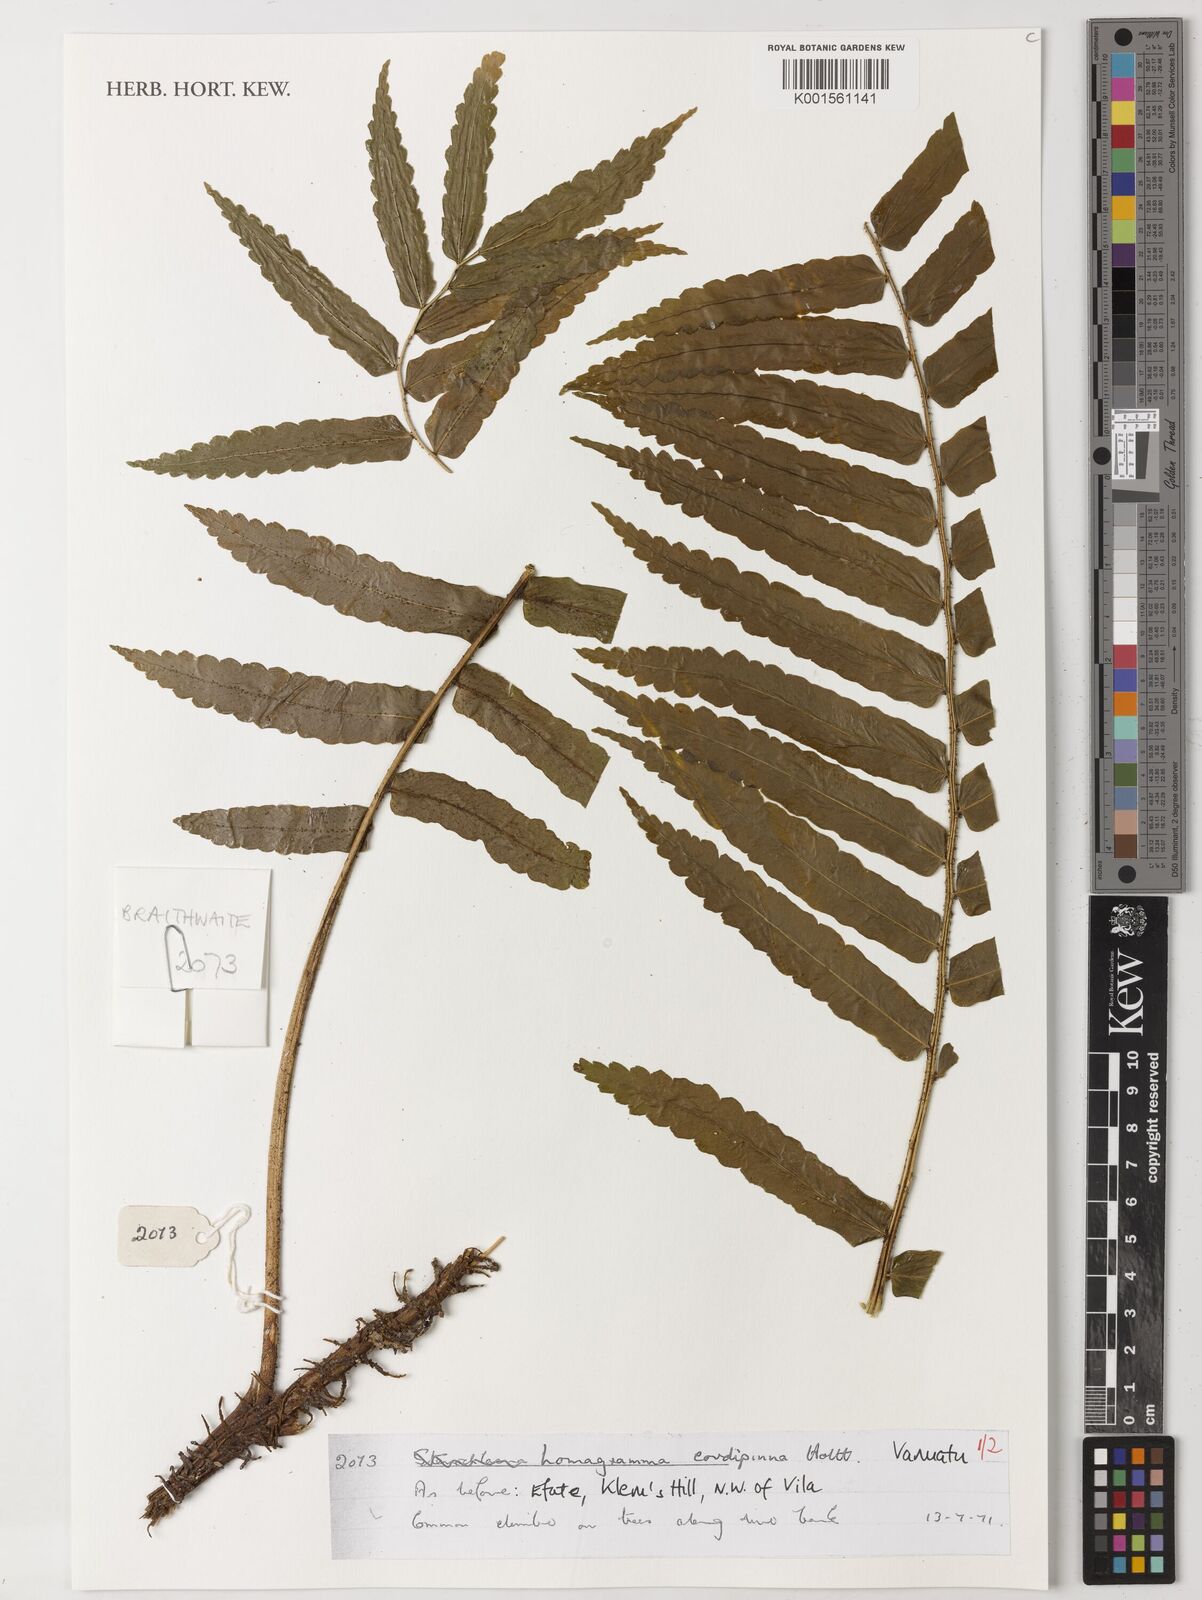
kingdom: Plantae
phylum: Tracheophyta
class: Polypodiopsida
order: Polypodiales
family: Dryopteridaceae
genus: Lomagramma
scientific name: Lomagramma cordipinna
